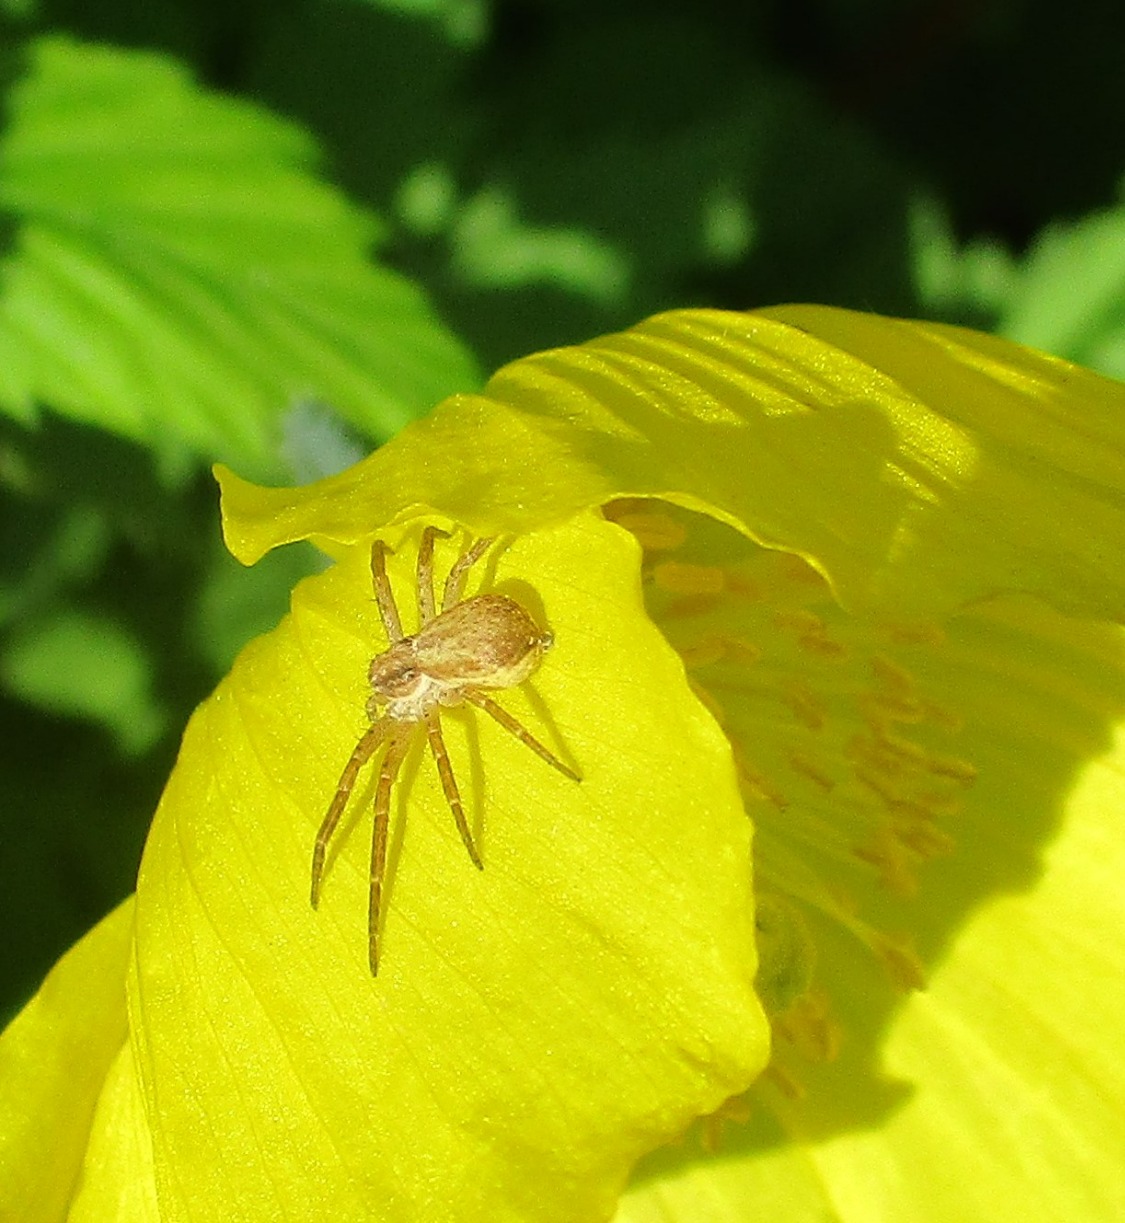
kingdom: Animalia
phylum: Arthropoda
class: Arachnida
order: Araneae
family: Philodromidae
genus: Philodromus
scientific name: Philodromus dispar
